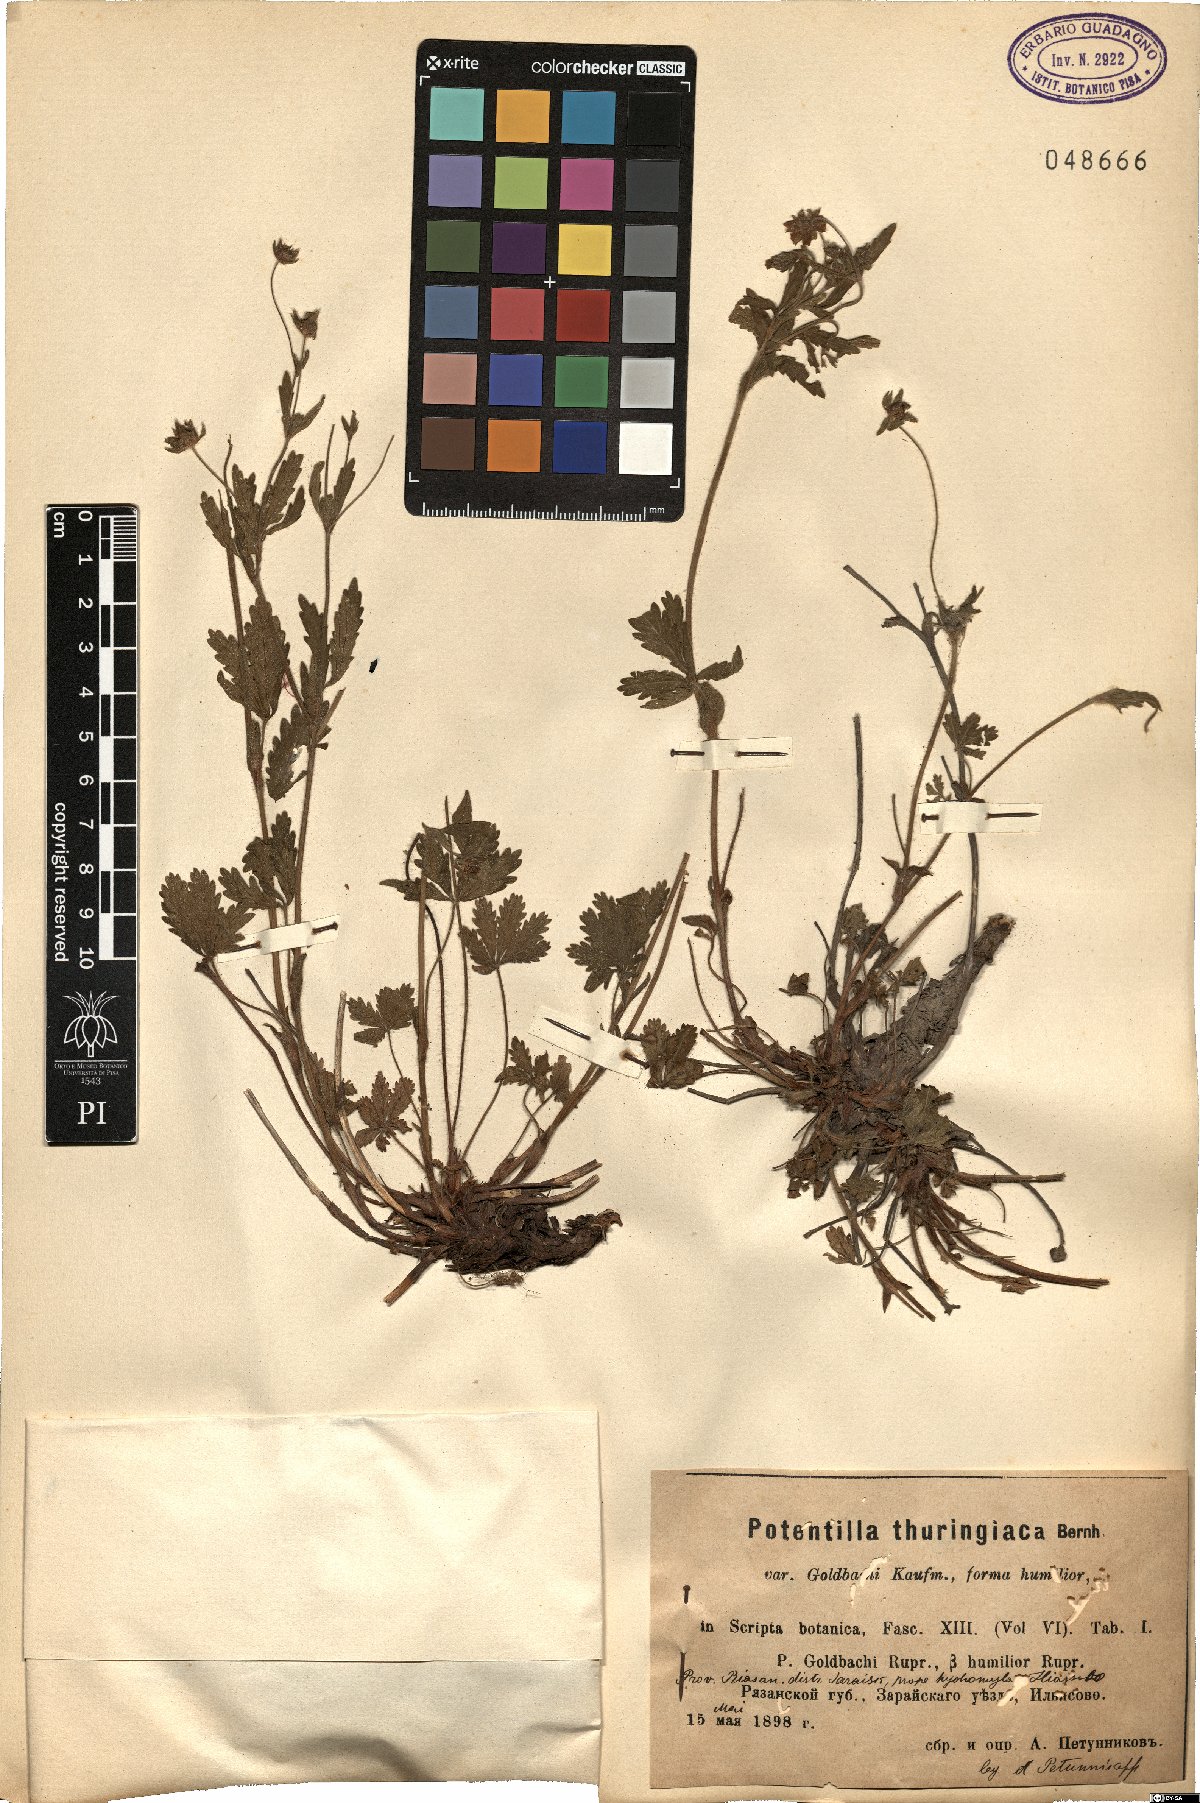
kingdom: Plantae
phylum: Tracheophyta
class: Magnoliopsida
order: Rosales
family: Rosaceae
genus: Potentilla
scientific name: Potentilla thuringiaca
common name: European cinquefoil
